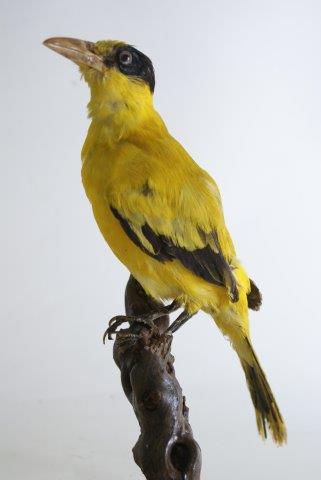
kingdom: Animalia
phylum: Chordata
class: Aves
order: Passeriformes
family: Oriolidae
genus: Oriolus
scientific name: Oriolus chinensis
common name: Black-naped oriole
